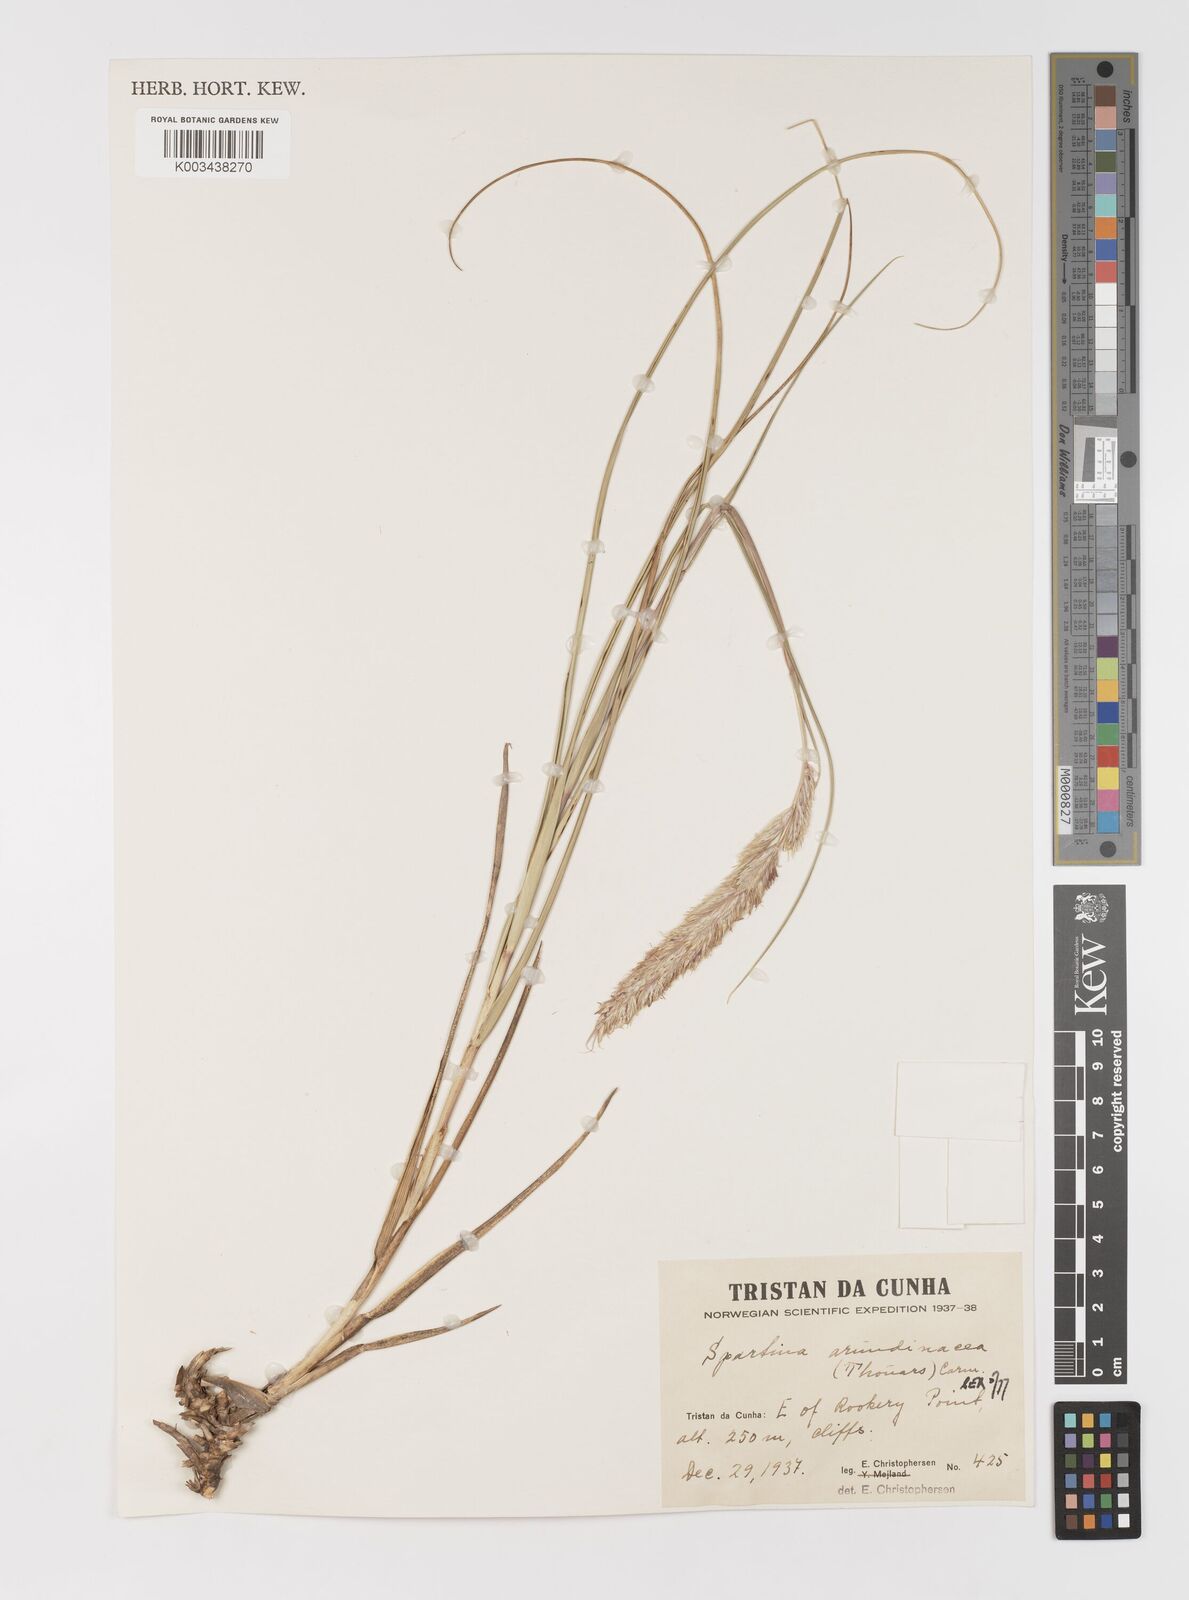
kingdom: Plantae
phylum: Tracheophyta
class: Liliopsida
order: Poales
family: Poaceae
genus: Sporobolus
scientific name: Sporobolus mobberleyanus
